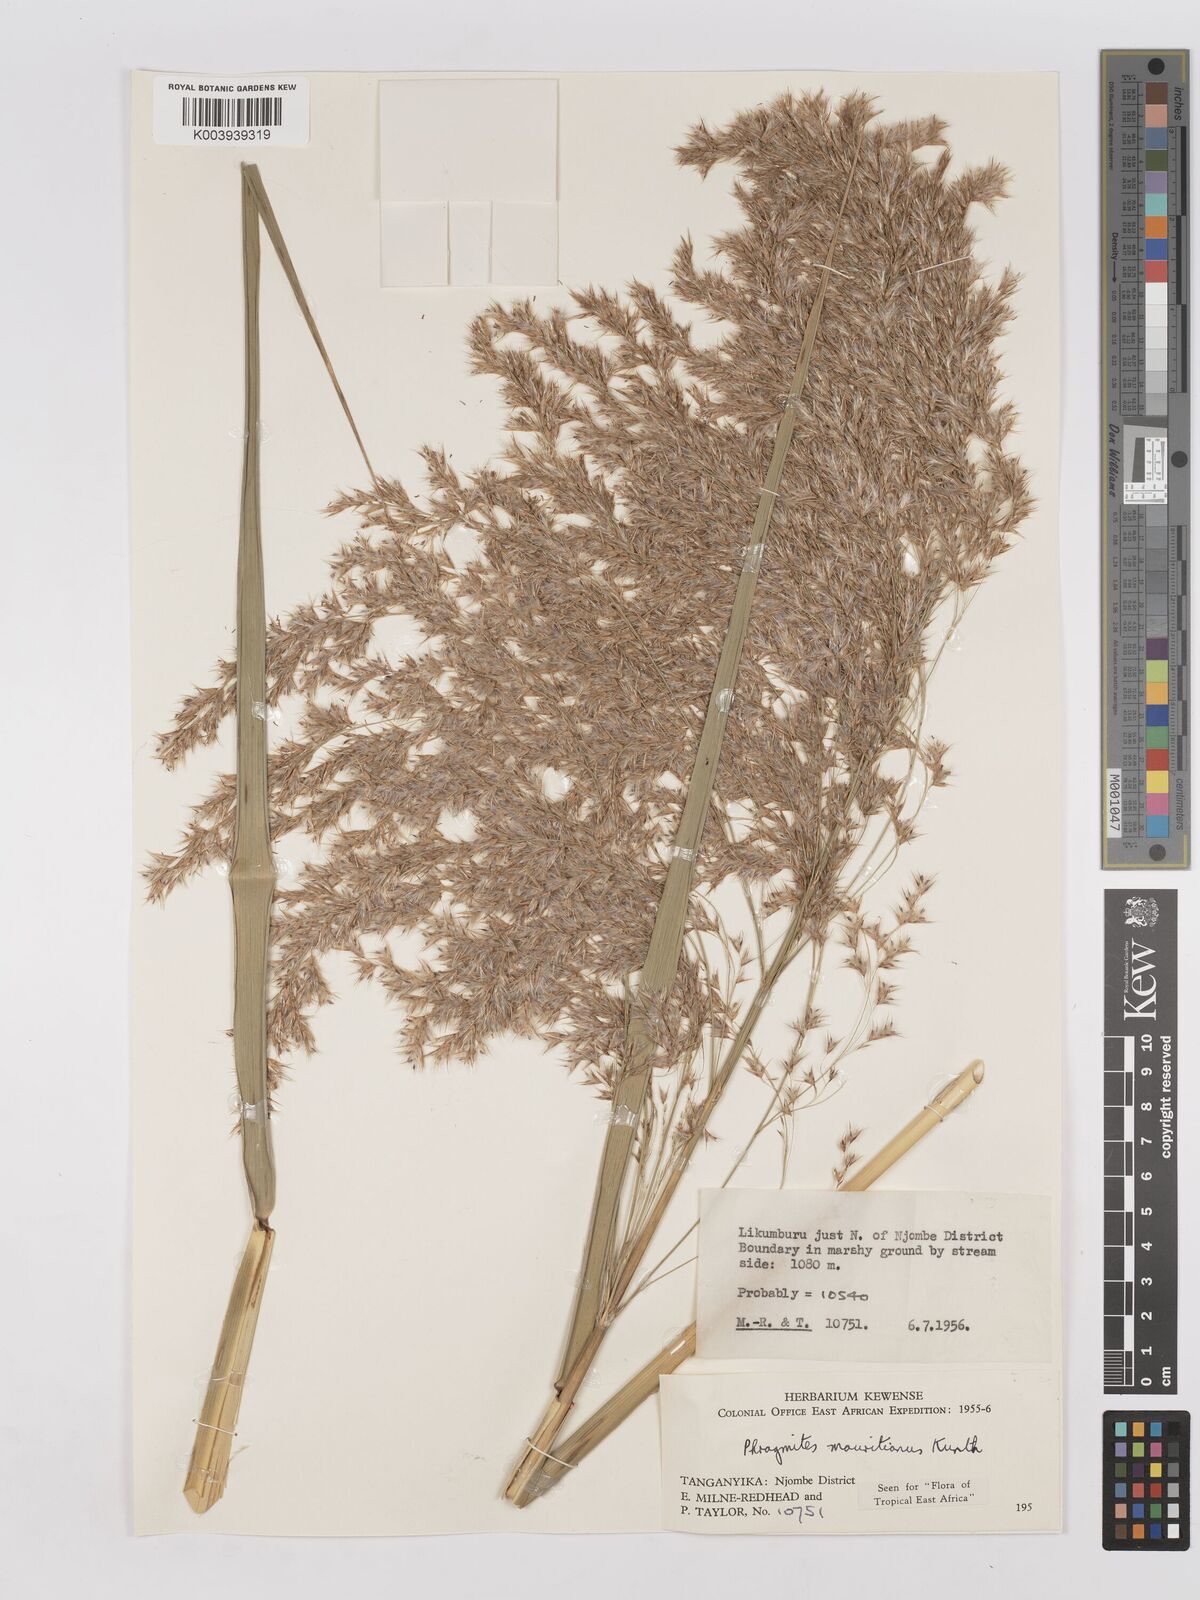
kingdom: Plantae
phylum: Tracheophyta
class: Liliopsida
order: Poales
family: Poaceae
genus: Phragmites
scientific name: Phragmites mauritianus
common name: Reed grass
